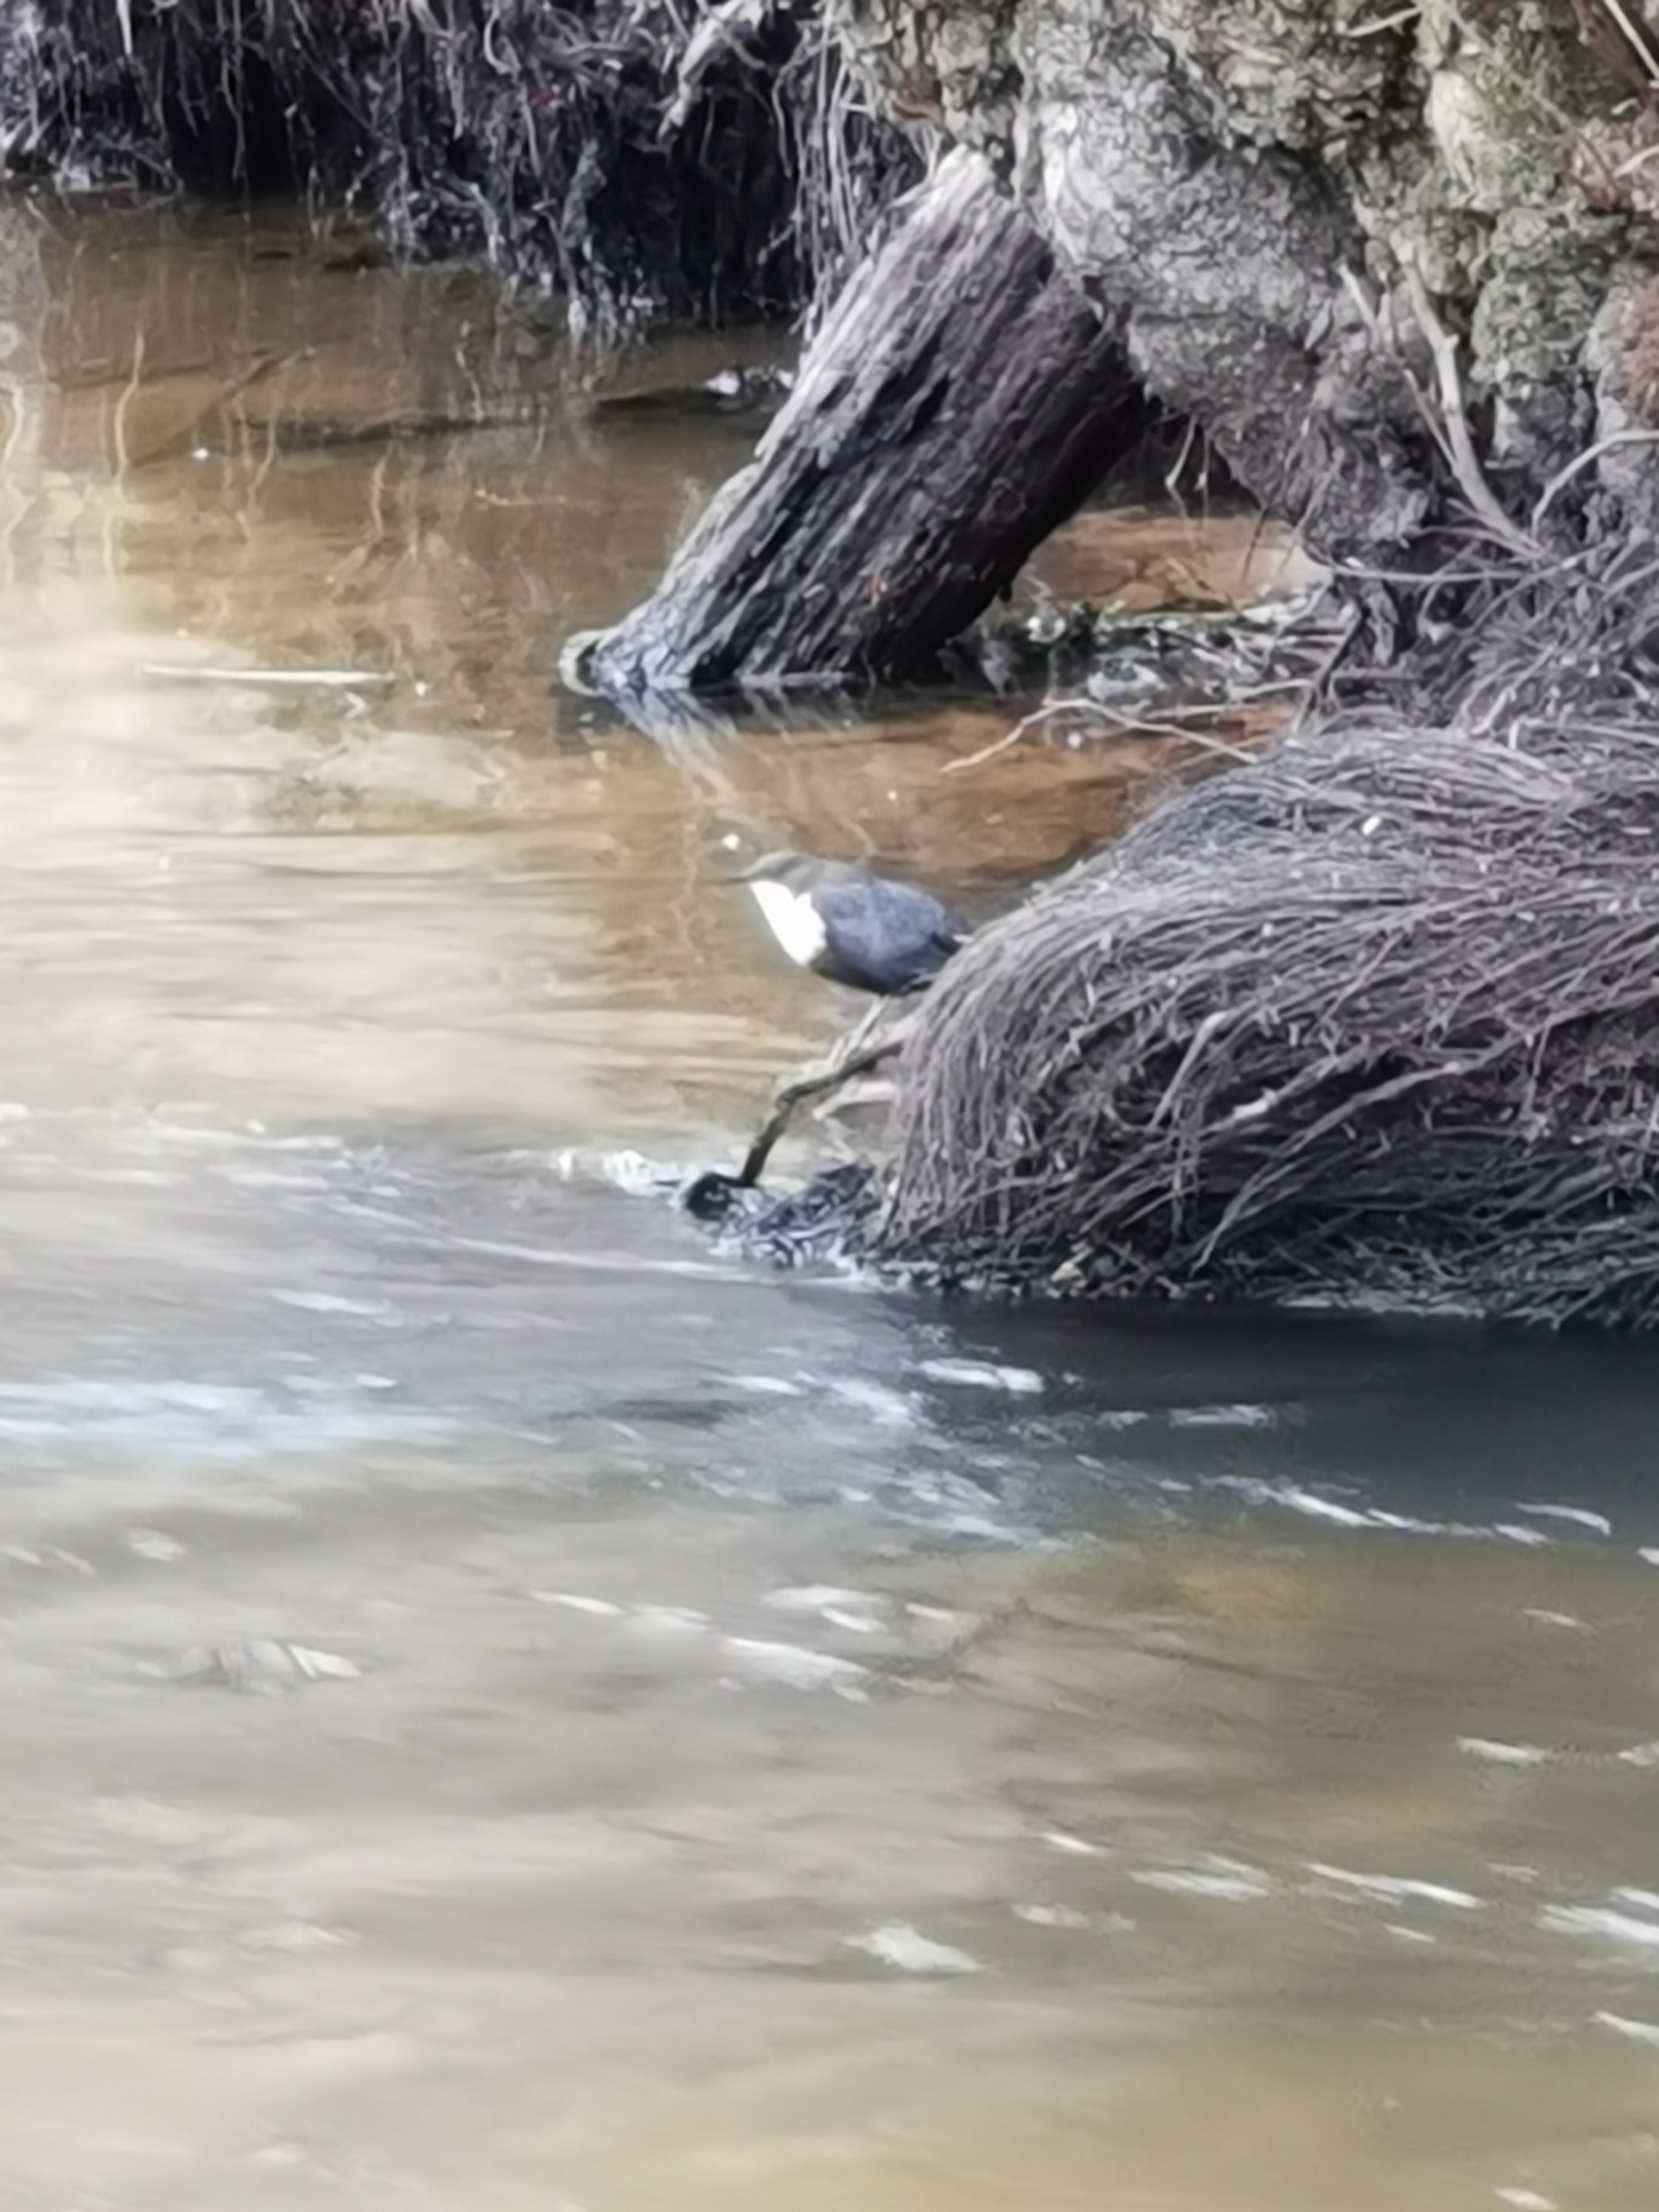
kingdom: Animalia
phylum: Chordata
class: Aves
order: Passeriformes
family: Cinclidae
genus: Cinclus
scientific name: Cinclus cinclus
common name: Vandstær
